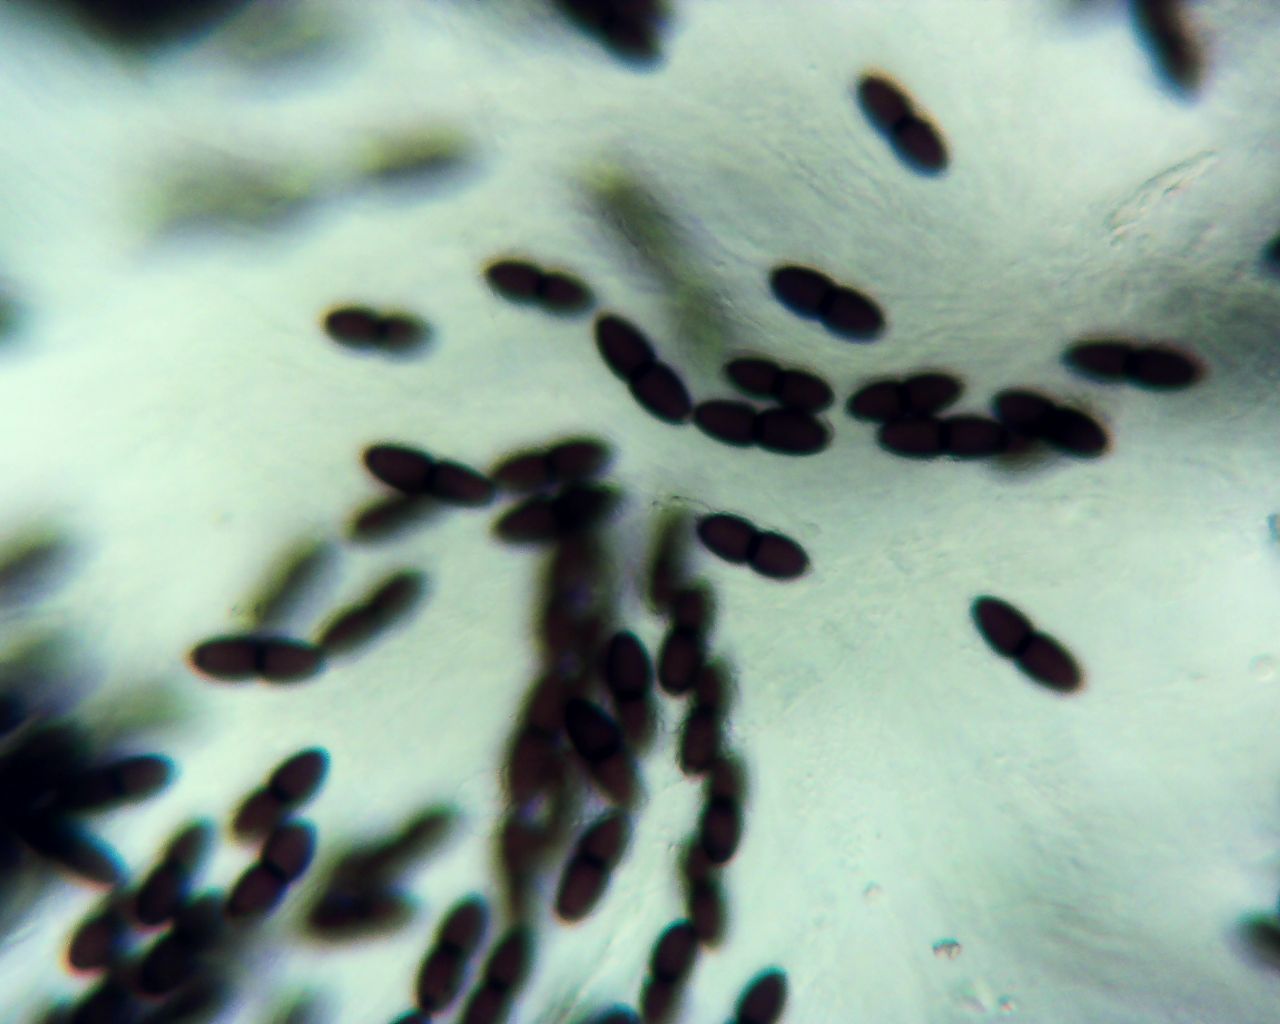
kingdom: Fungi
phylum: Ascomycota
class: Dothideomycetes
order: Phaeotrichales
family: Phaeotrichaceae
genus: Trichodelitschia
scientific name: Trichodelitschia bisporula
